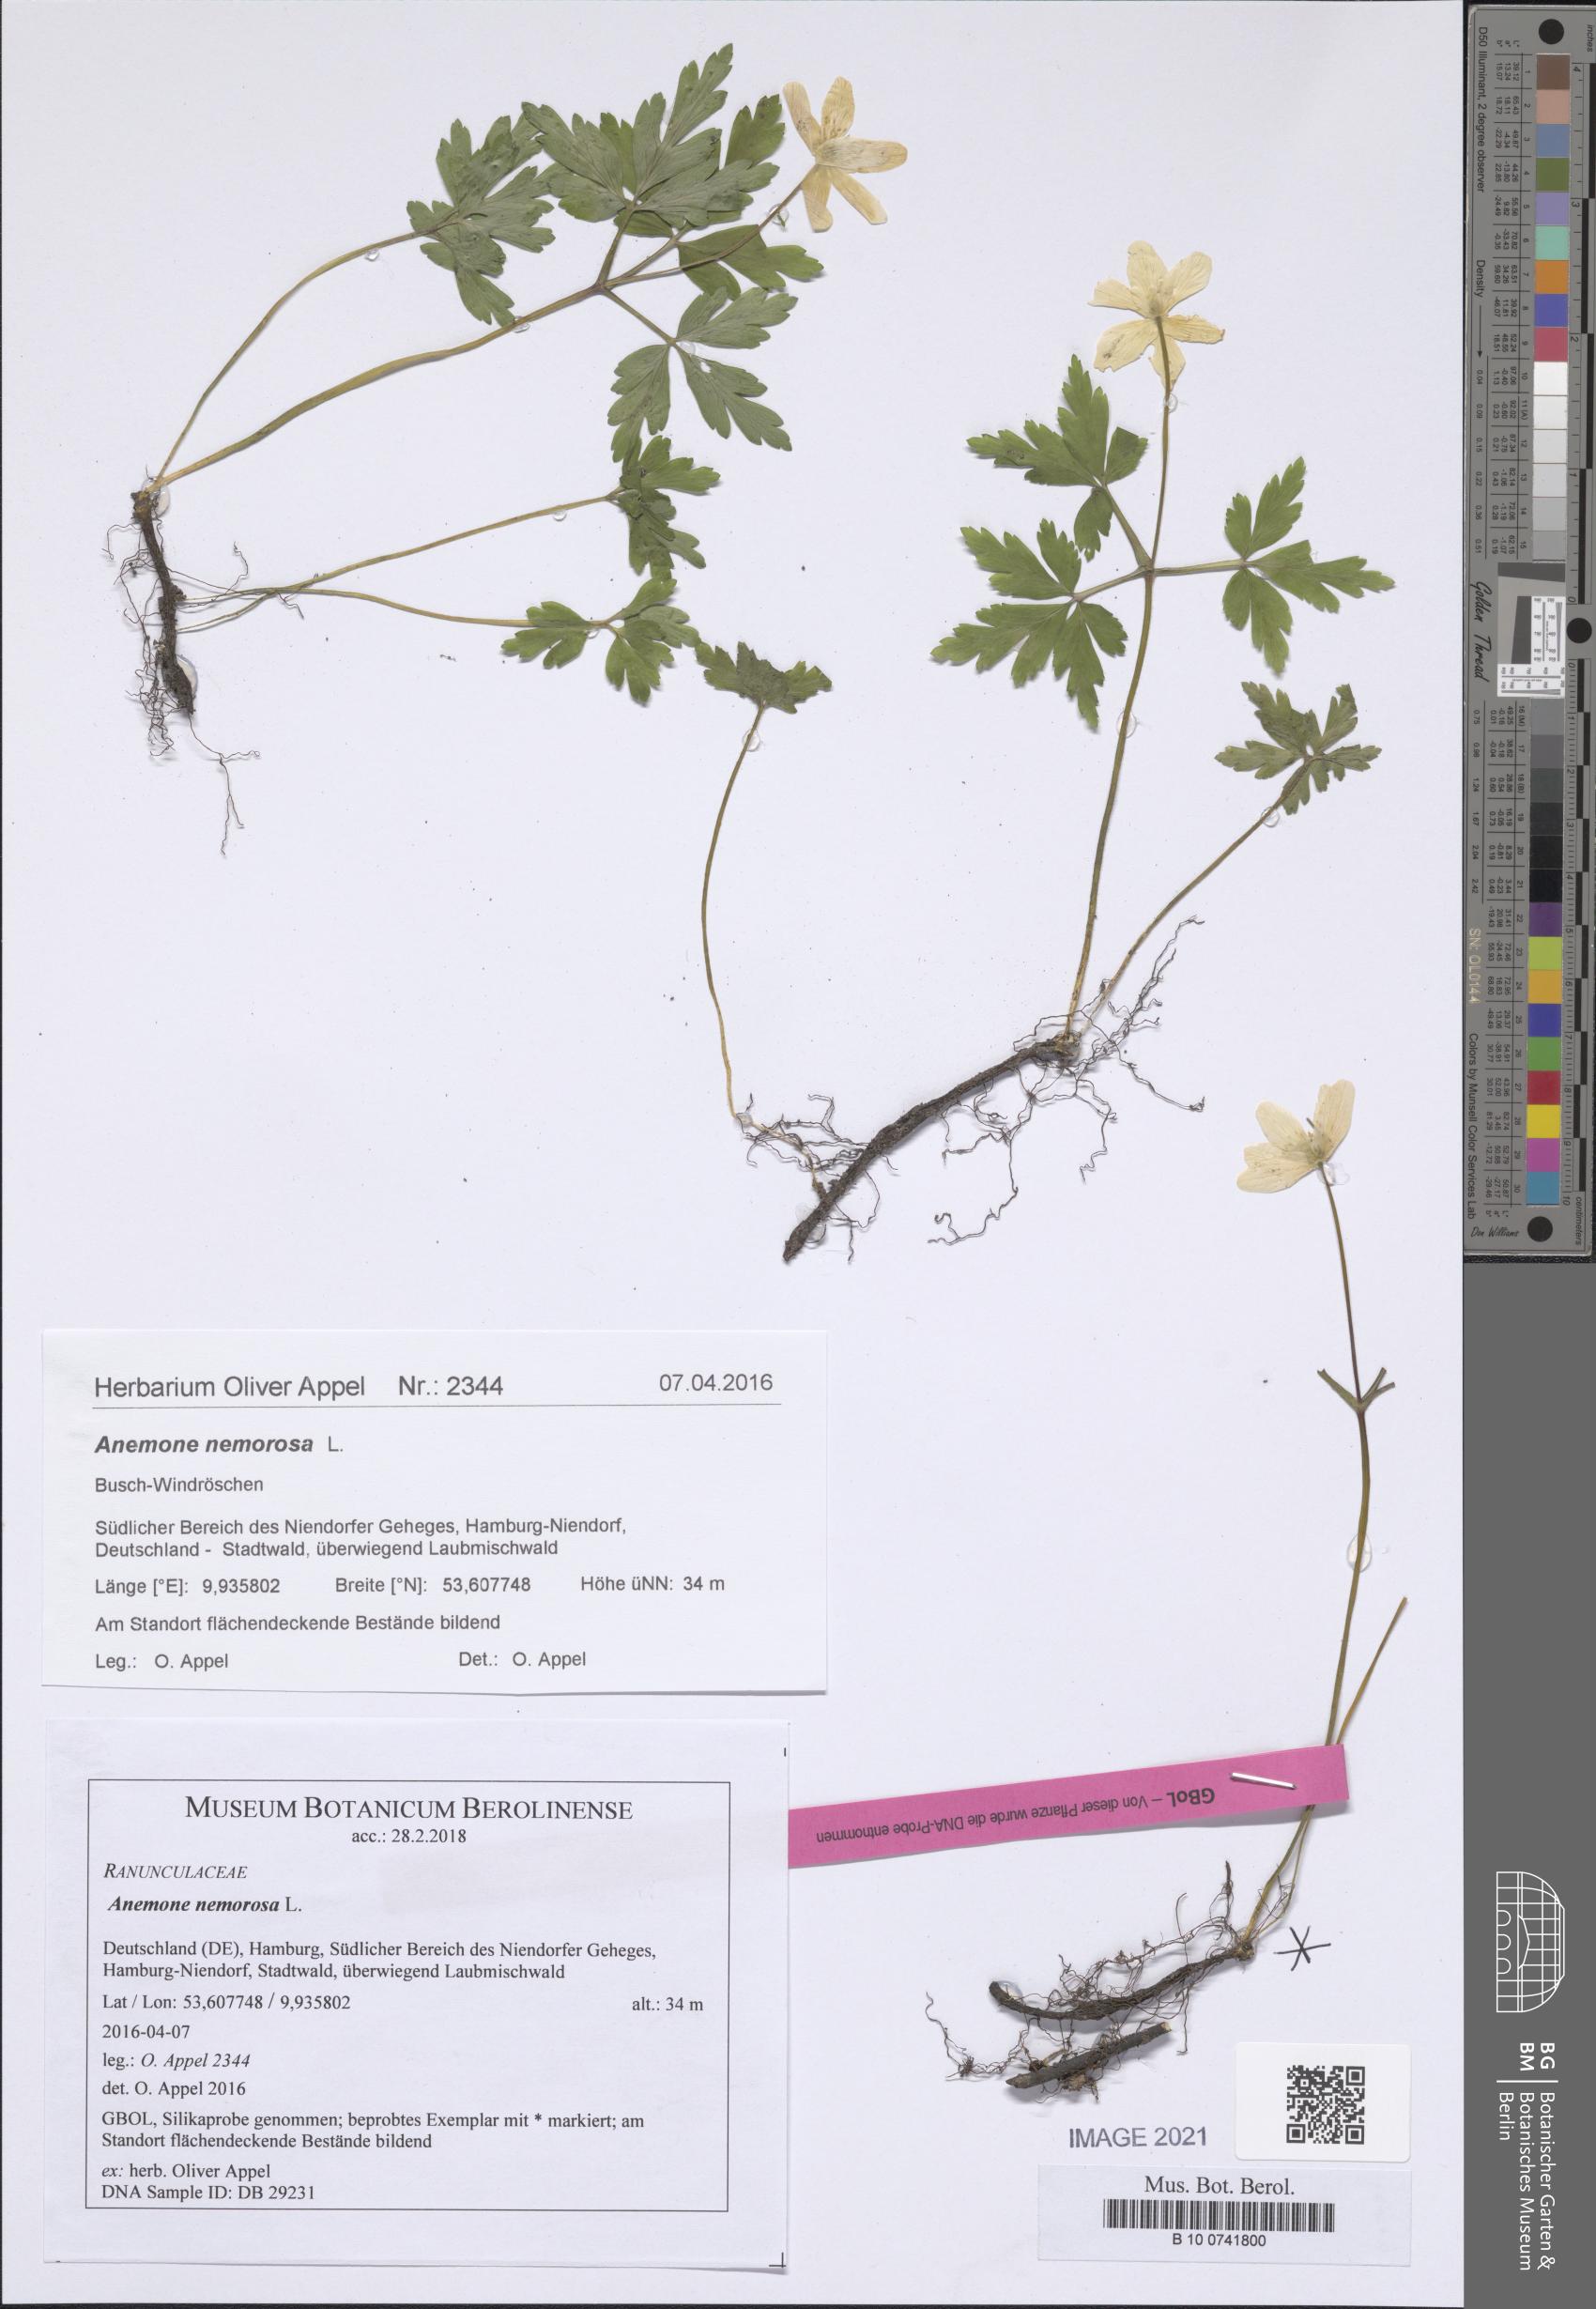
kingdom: Plantae
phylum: Tracheophyta
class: Magnoliopsida
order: Ranunculales
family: Ranunculaceae
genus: Anemone
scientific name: Anemone nemorosa
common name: Wood anemone
